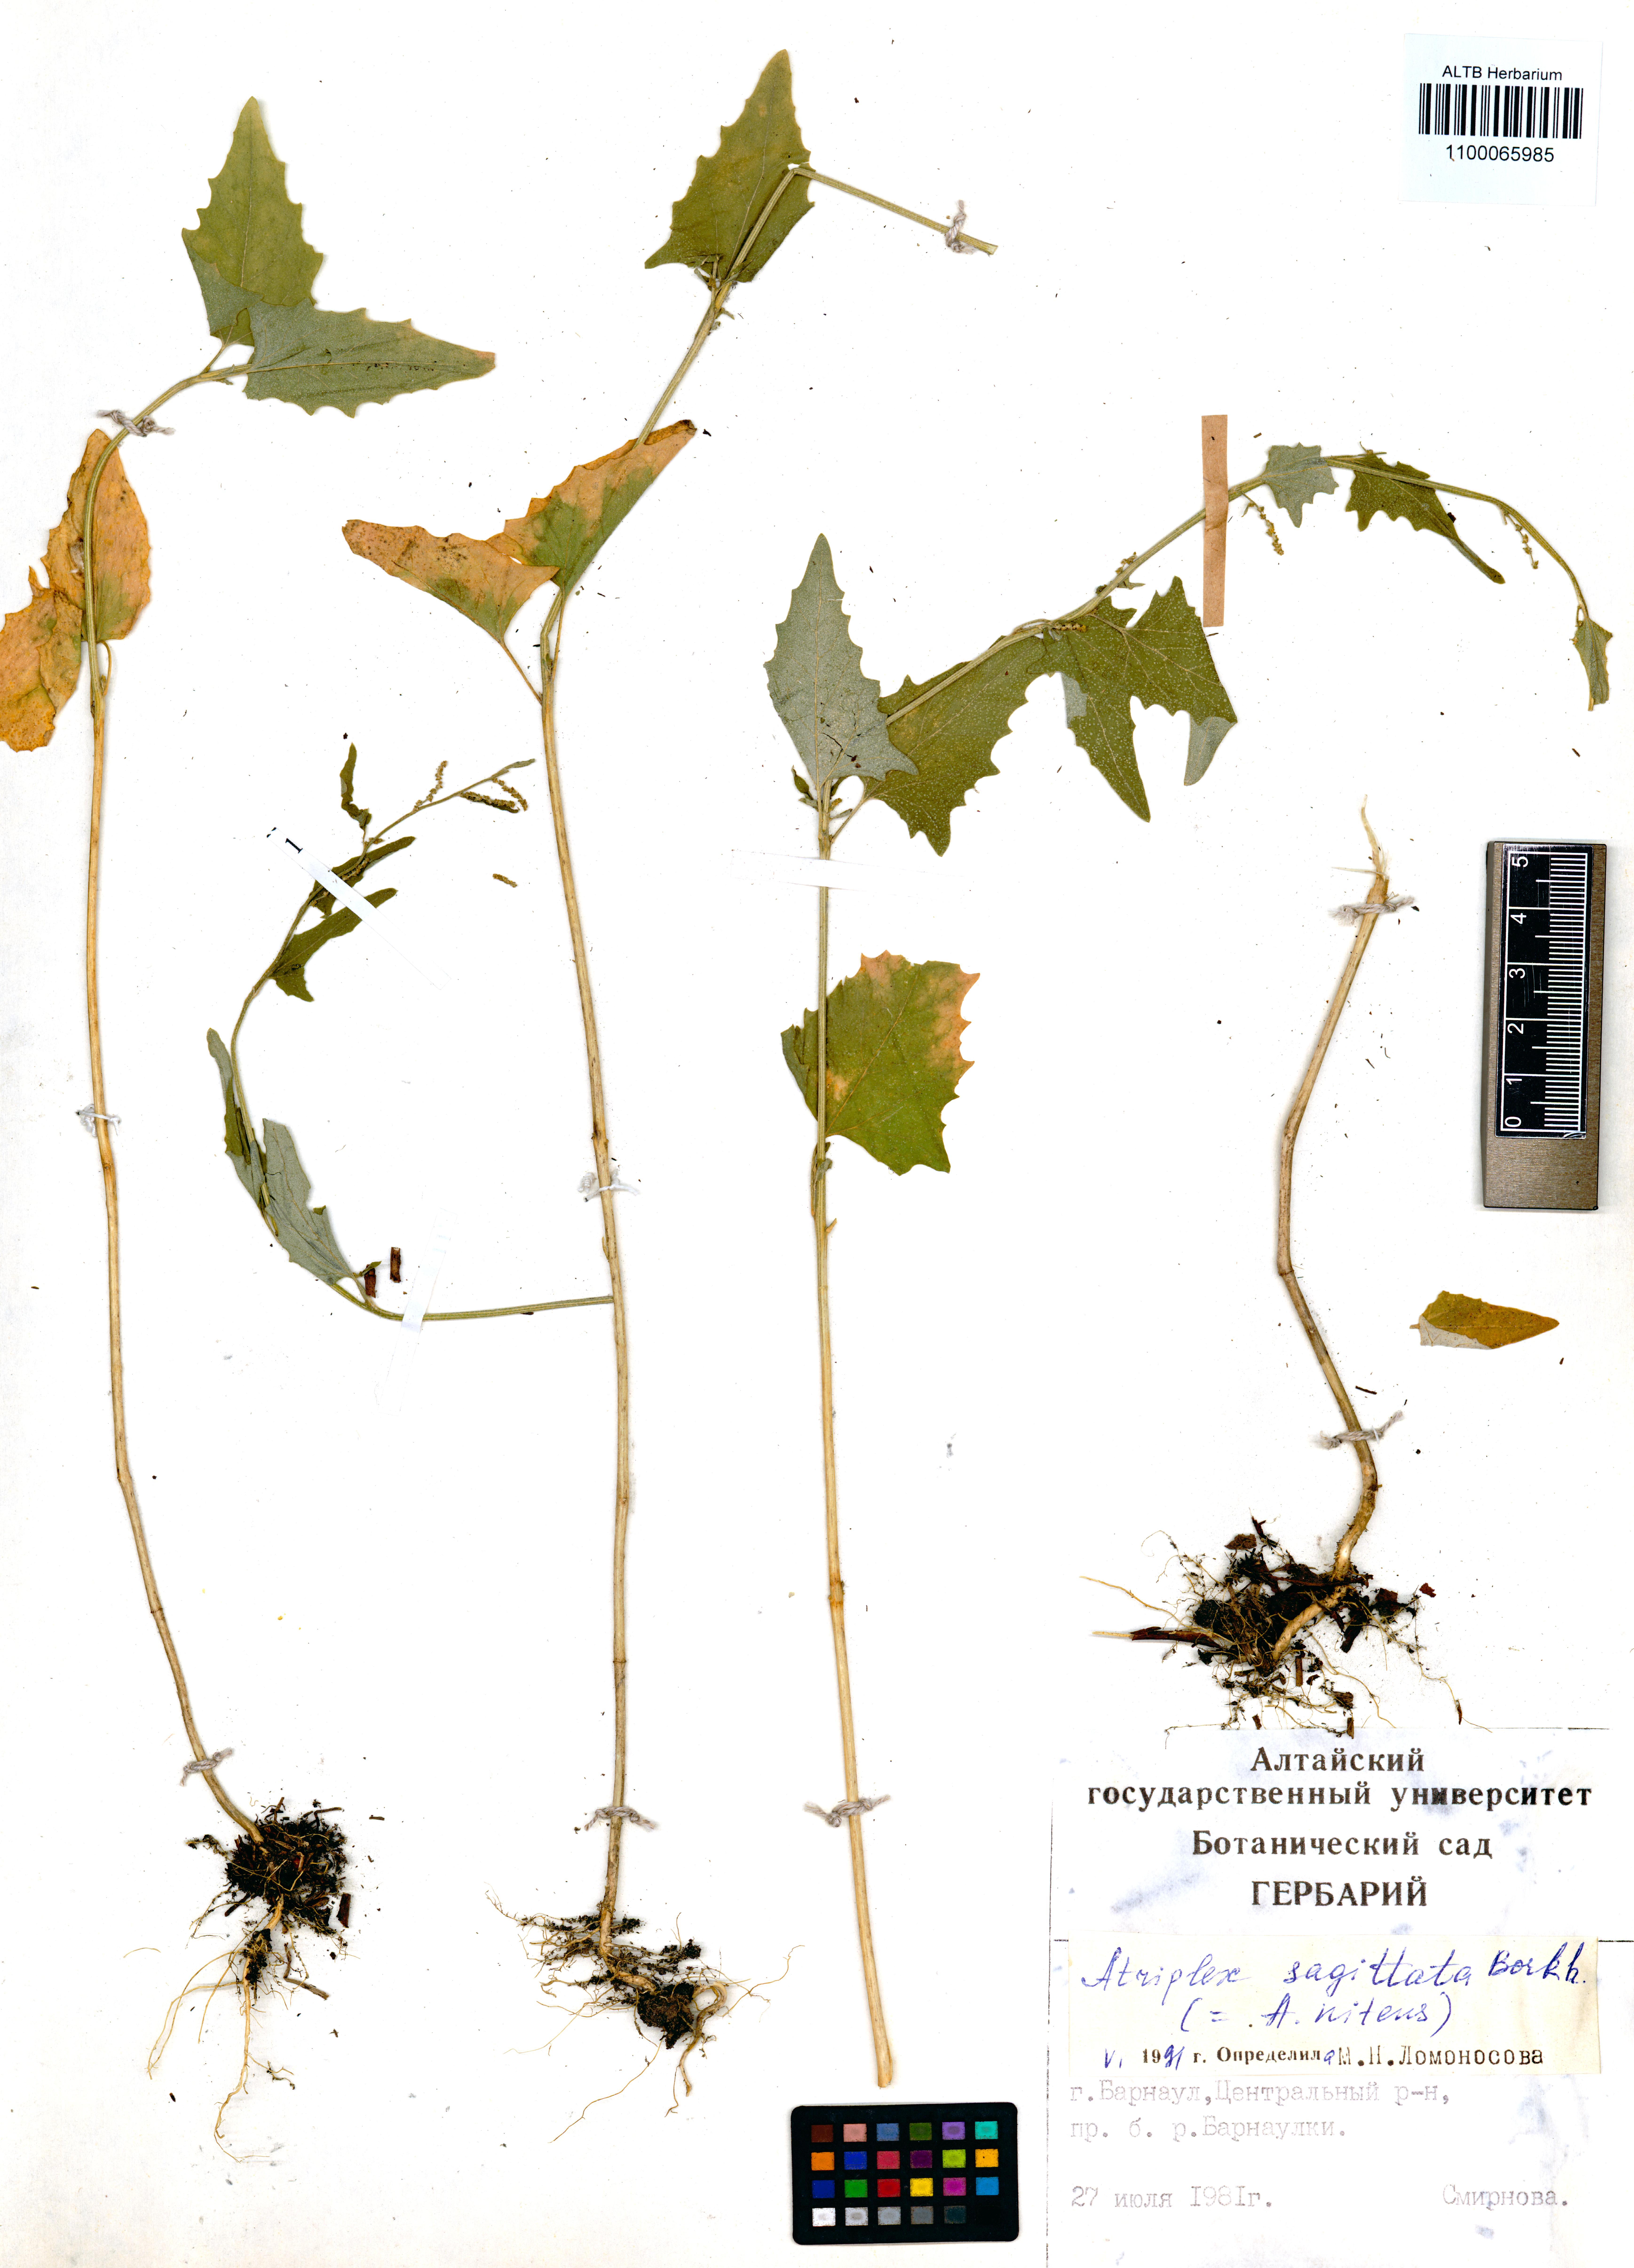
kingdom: Plantae
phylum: Tracheophyta
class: Magnoliopsida
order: Caryophyllales
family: Amaranthaceae
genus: Atriplex
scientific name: Atriplex sagittata
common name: Purple orache
